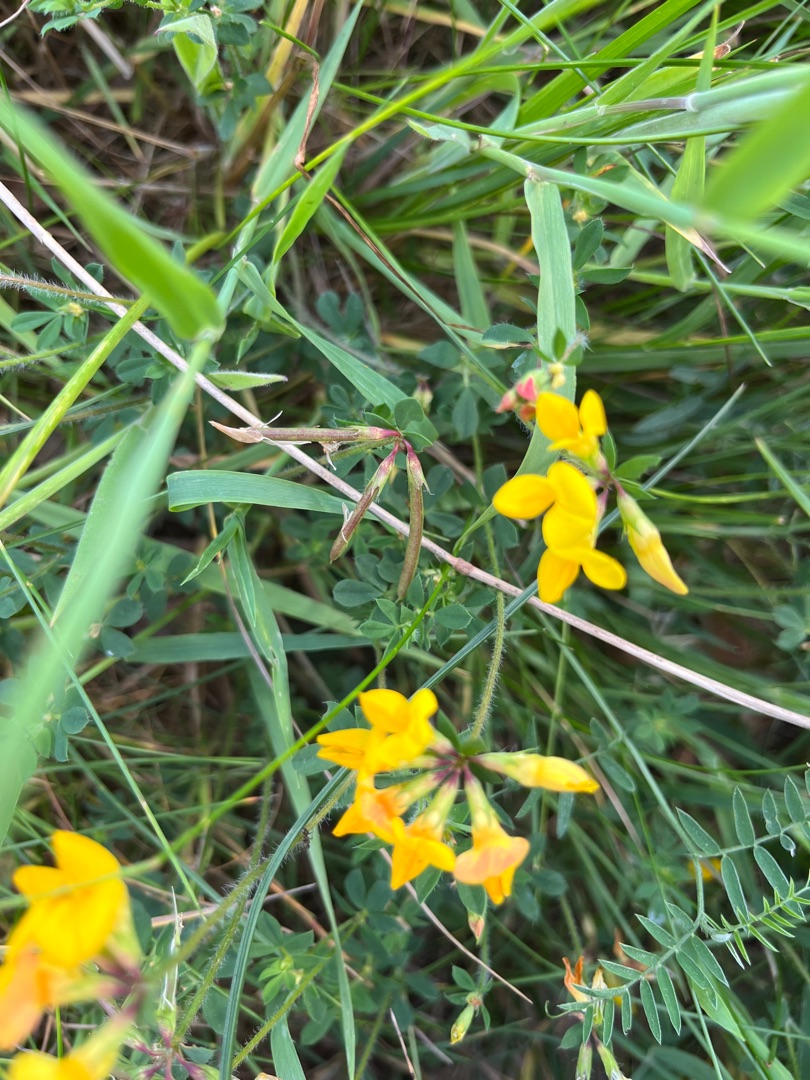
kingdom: Plantae
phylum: Tracheophyta
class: Magnoliopsida
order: Fabales
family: Fabaceae
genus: Lotus
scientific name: Lotus corniculatus
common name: Almindelig kællingetand
